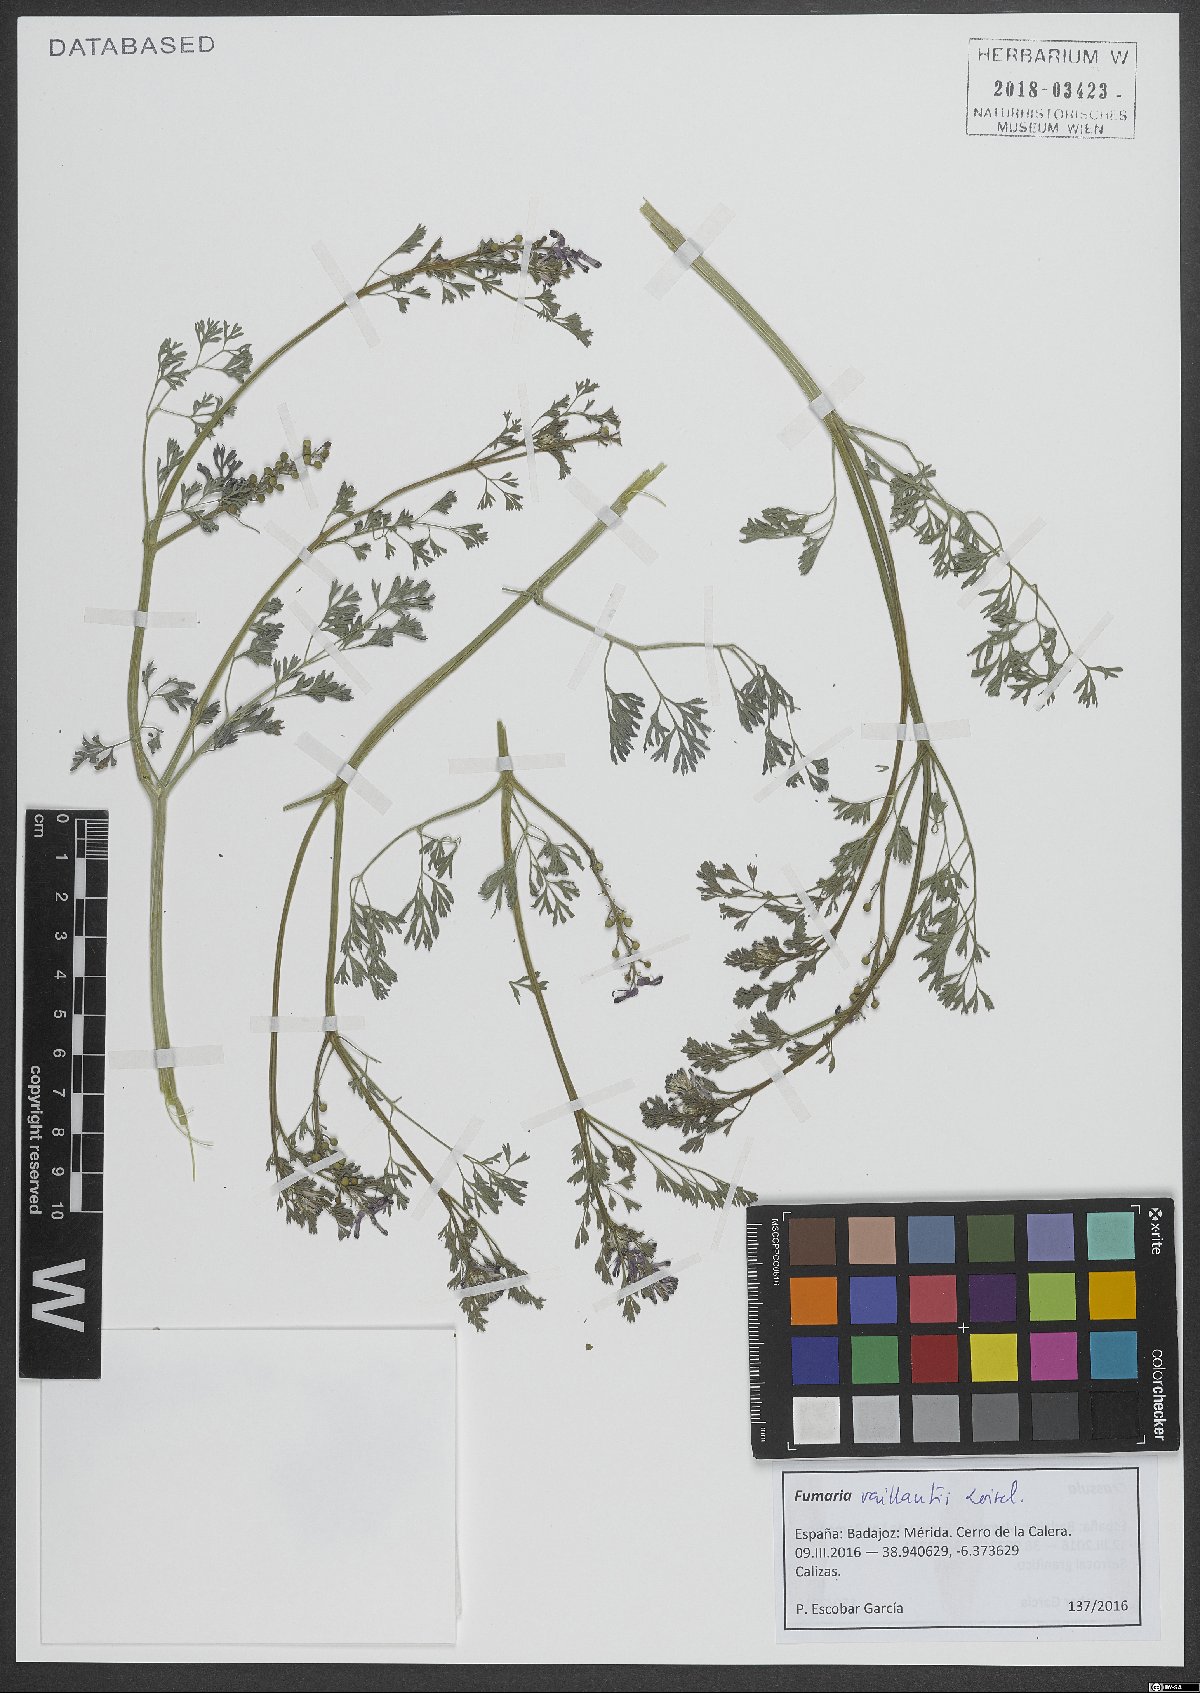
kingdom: Plantae
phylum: Tracheophyta
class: Magnoliopsida
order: Ranunculales
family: Papaveraceae
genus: Fumaria
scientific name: Fumaria vaillantii
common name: Few-flowered fumitory
